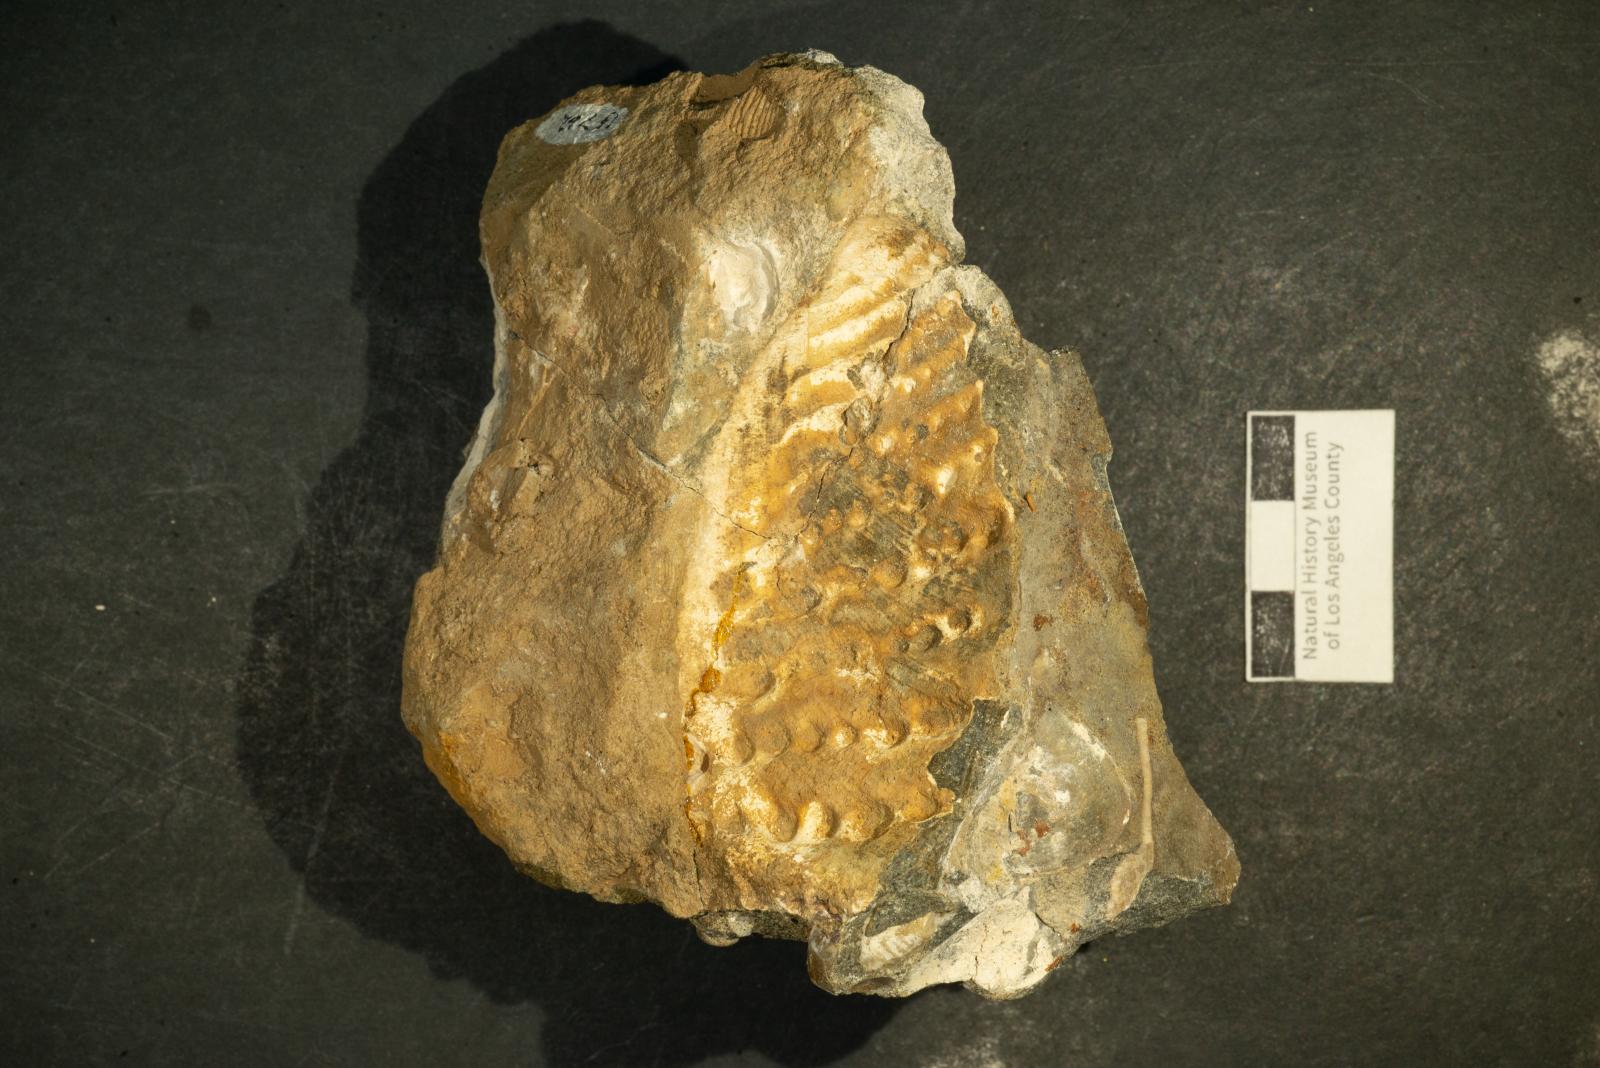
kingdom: Animalia
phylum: Mollusca
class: Bivalvia
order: Trigoniida
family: Steinmanellidae
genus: Popenoella
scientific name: Popenoella pinea
